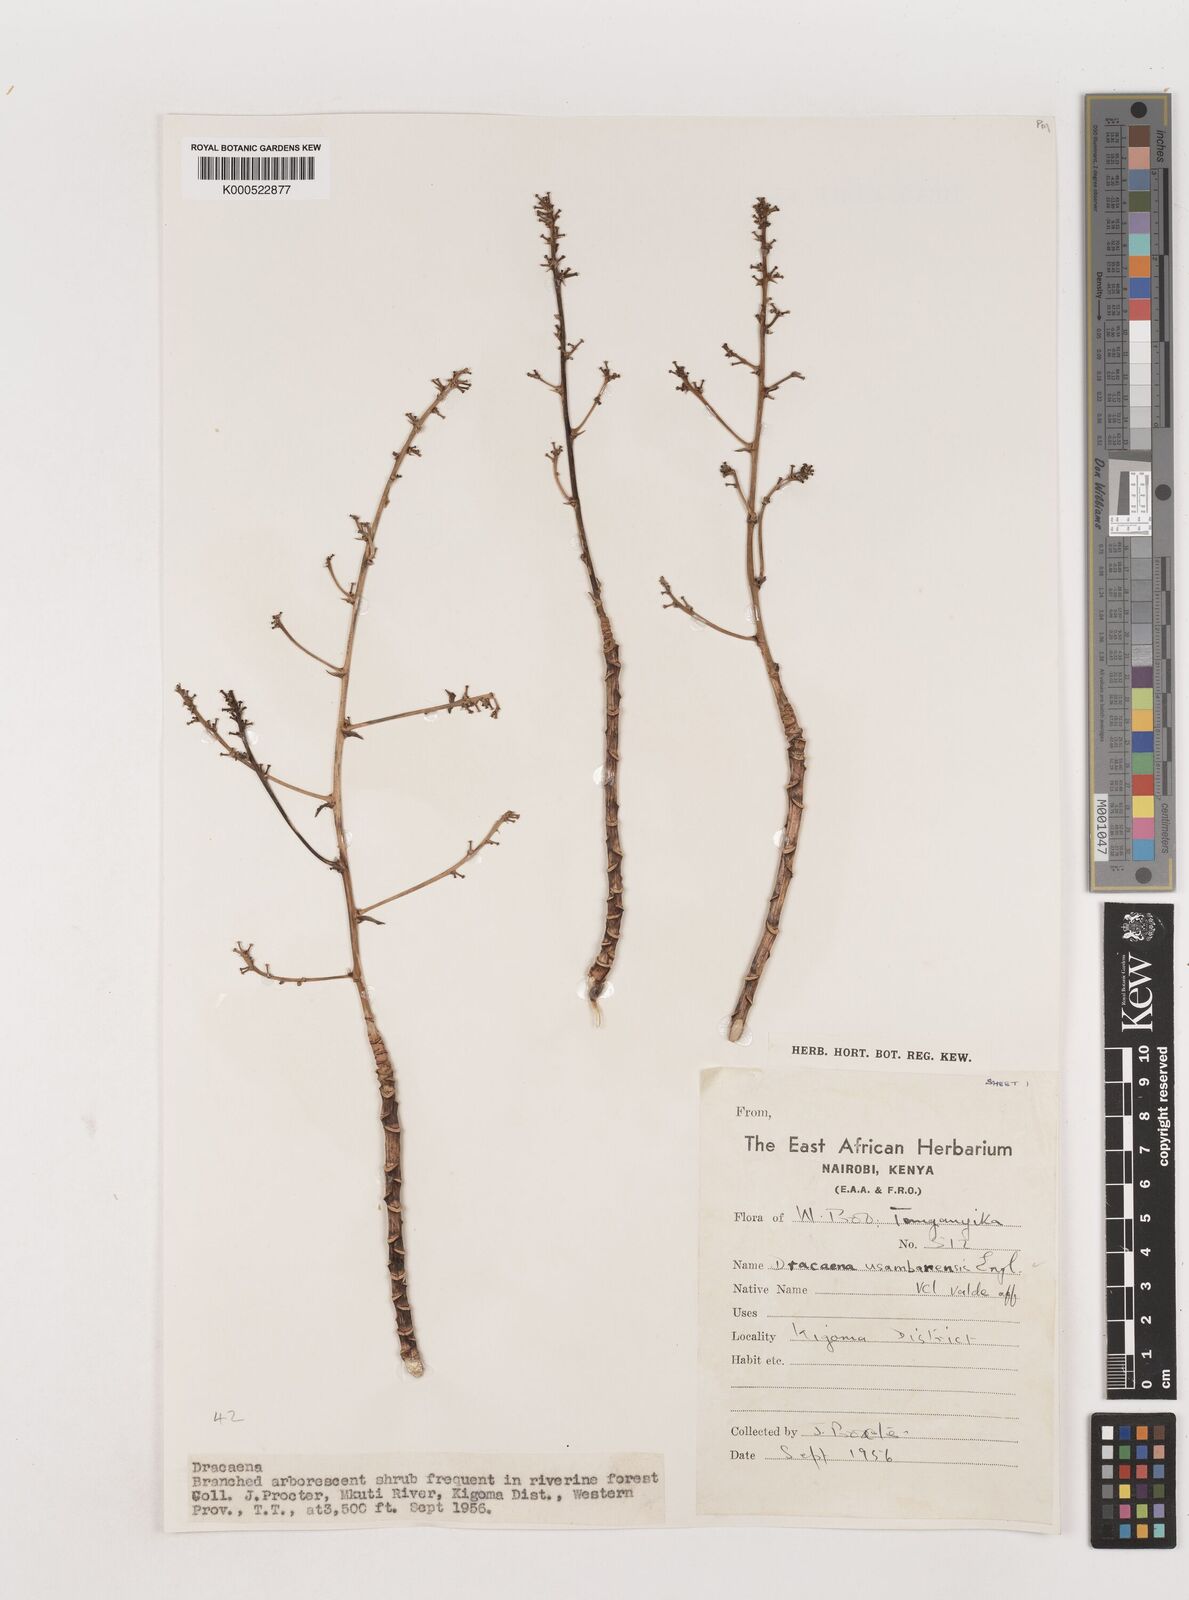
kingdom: Plantae
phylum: Tracheophyta
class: Liliopsida
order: Asparagales
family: Asparagaceae
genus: Dracaena
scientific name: Dracaena usambarensis
